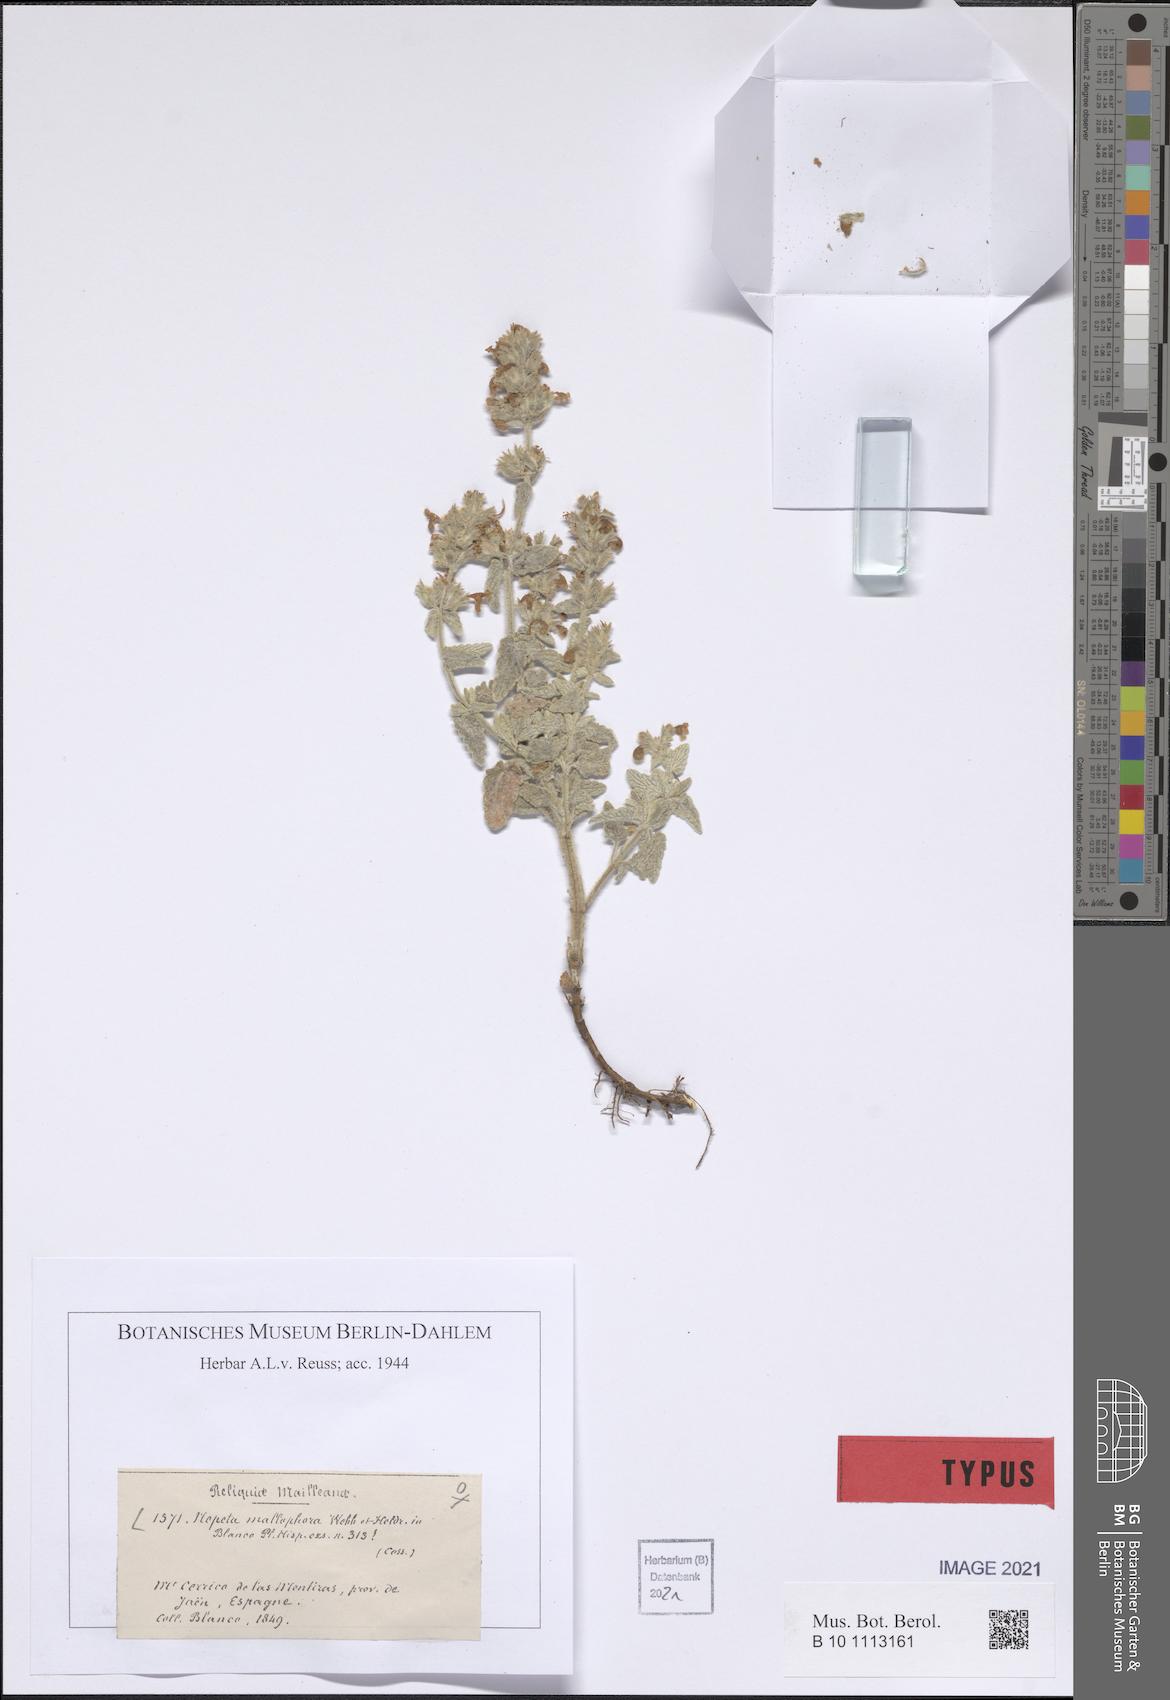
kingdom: Plantae
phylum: Tracheophyta
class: Magnoliopsida
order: Lamiales
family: Lamiaceae
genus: Nepeta
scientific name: Nepeta nepetella
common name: Lesser catmint
